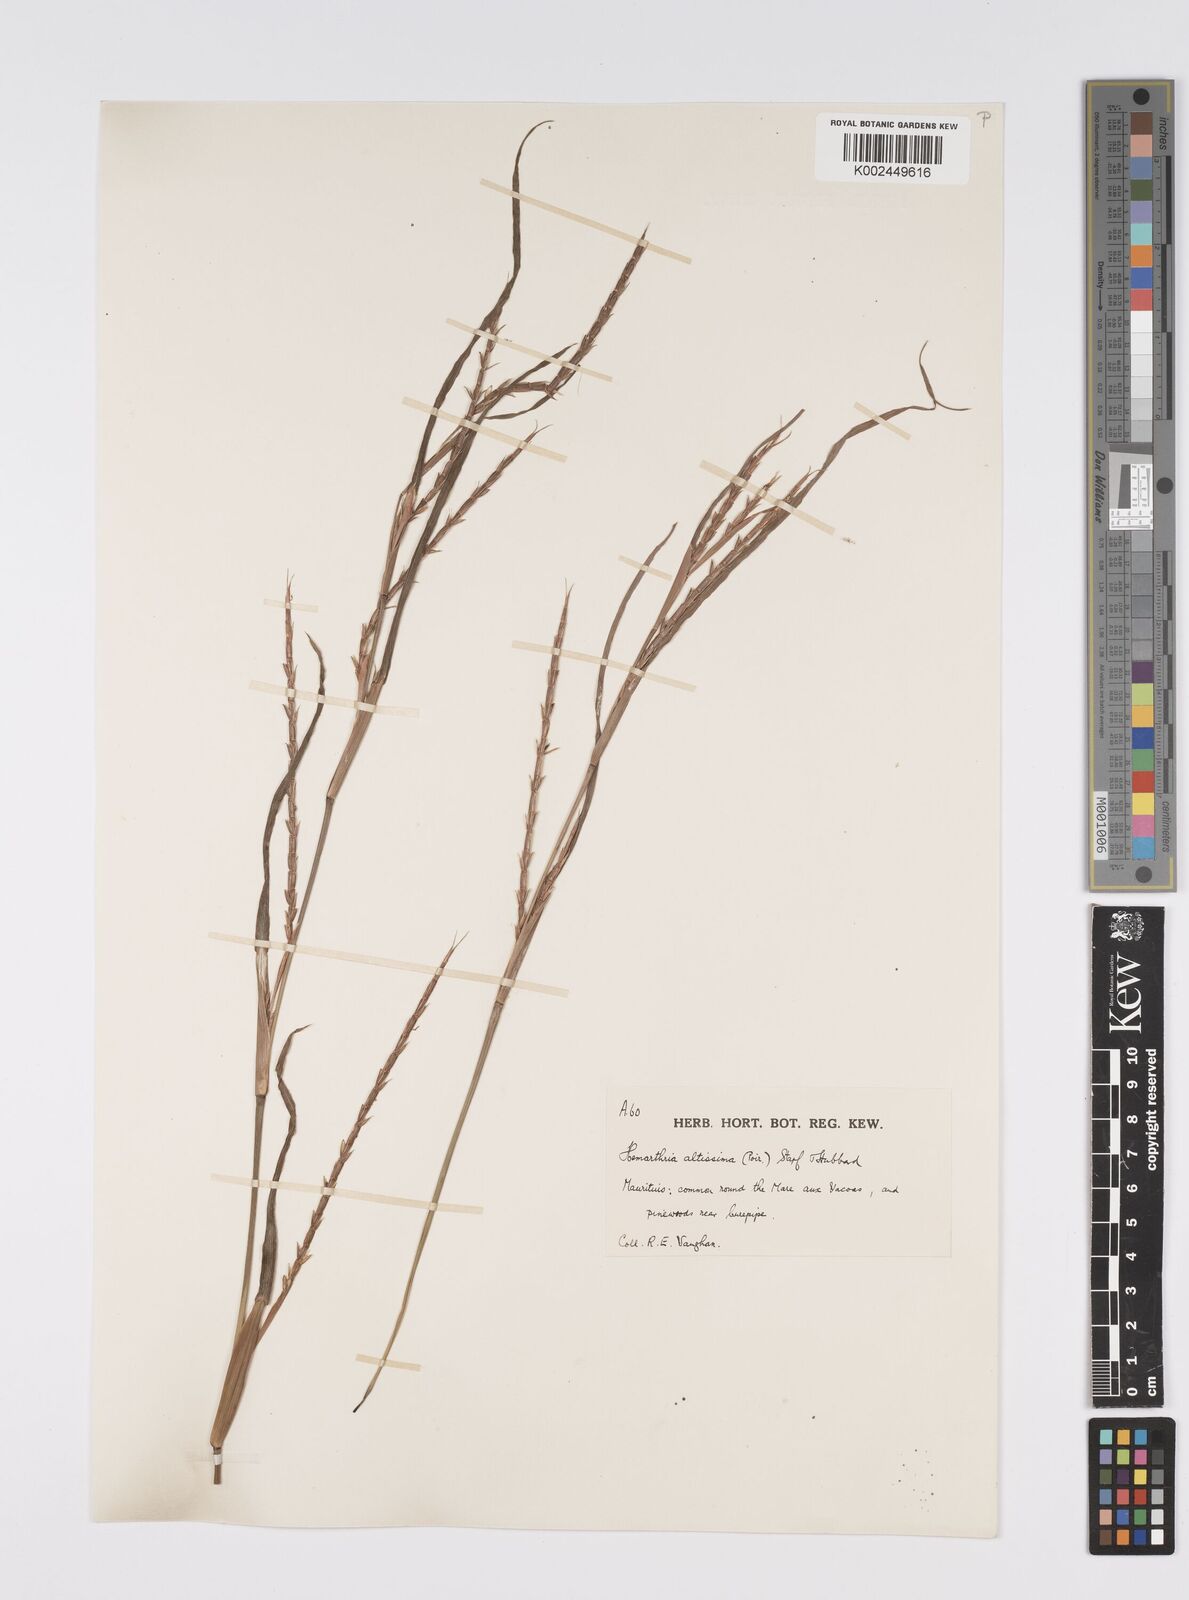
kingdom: Plantae
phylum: Tracheophyta
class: Liliopsida
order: Poales
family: Poaceae
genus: Hemarthria
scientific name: Hemarthria altissima
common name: African jointgrass
